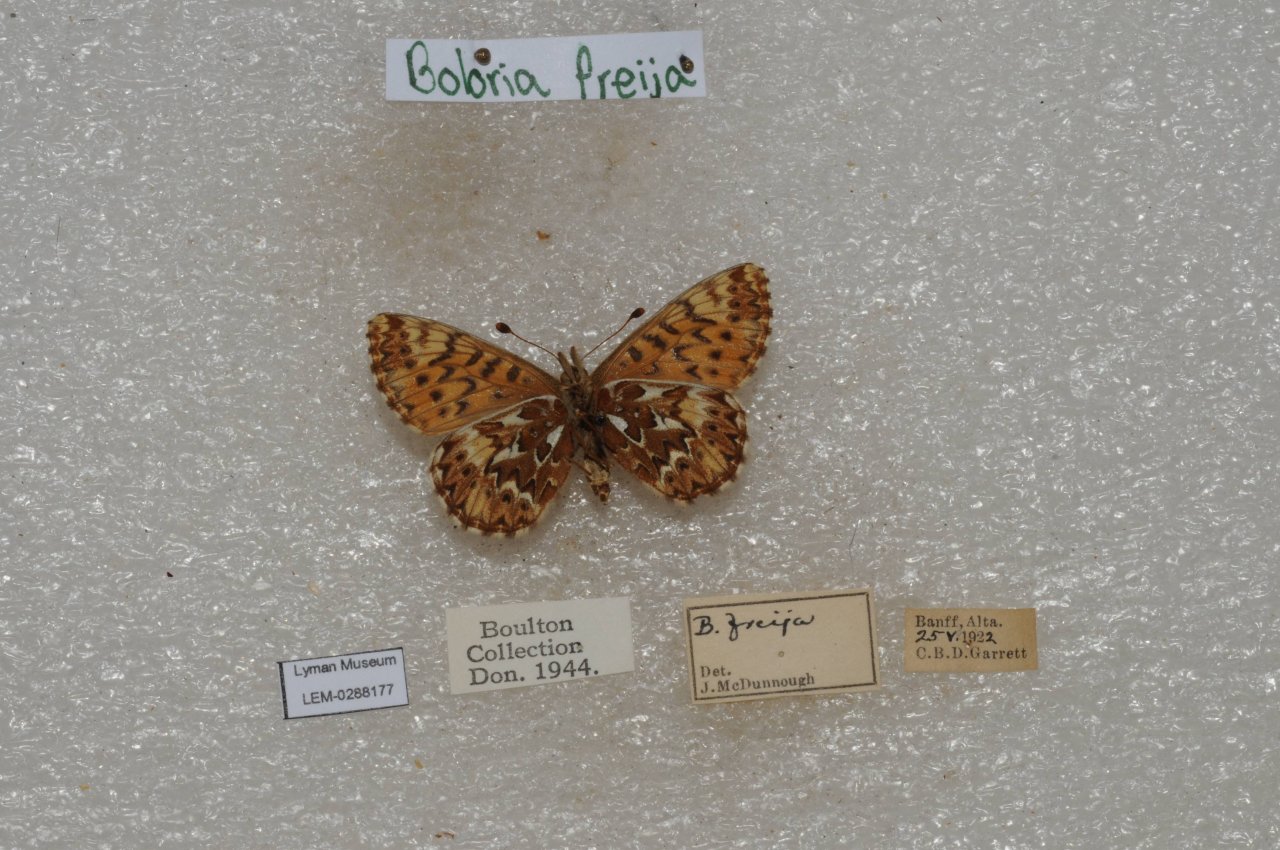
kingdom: Animalia
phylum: Arthropoda
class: Insecta
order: Lepidoptera
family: Nymphalidae
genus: Boloria
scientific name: Boloria freija
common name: Freija Fritillary
